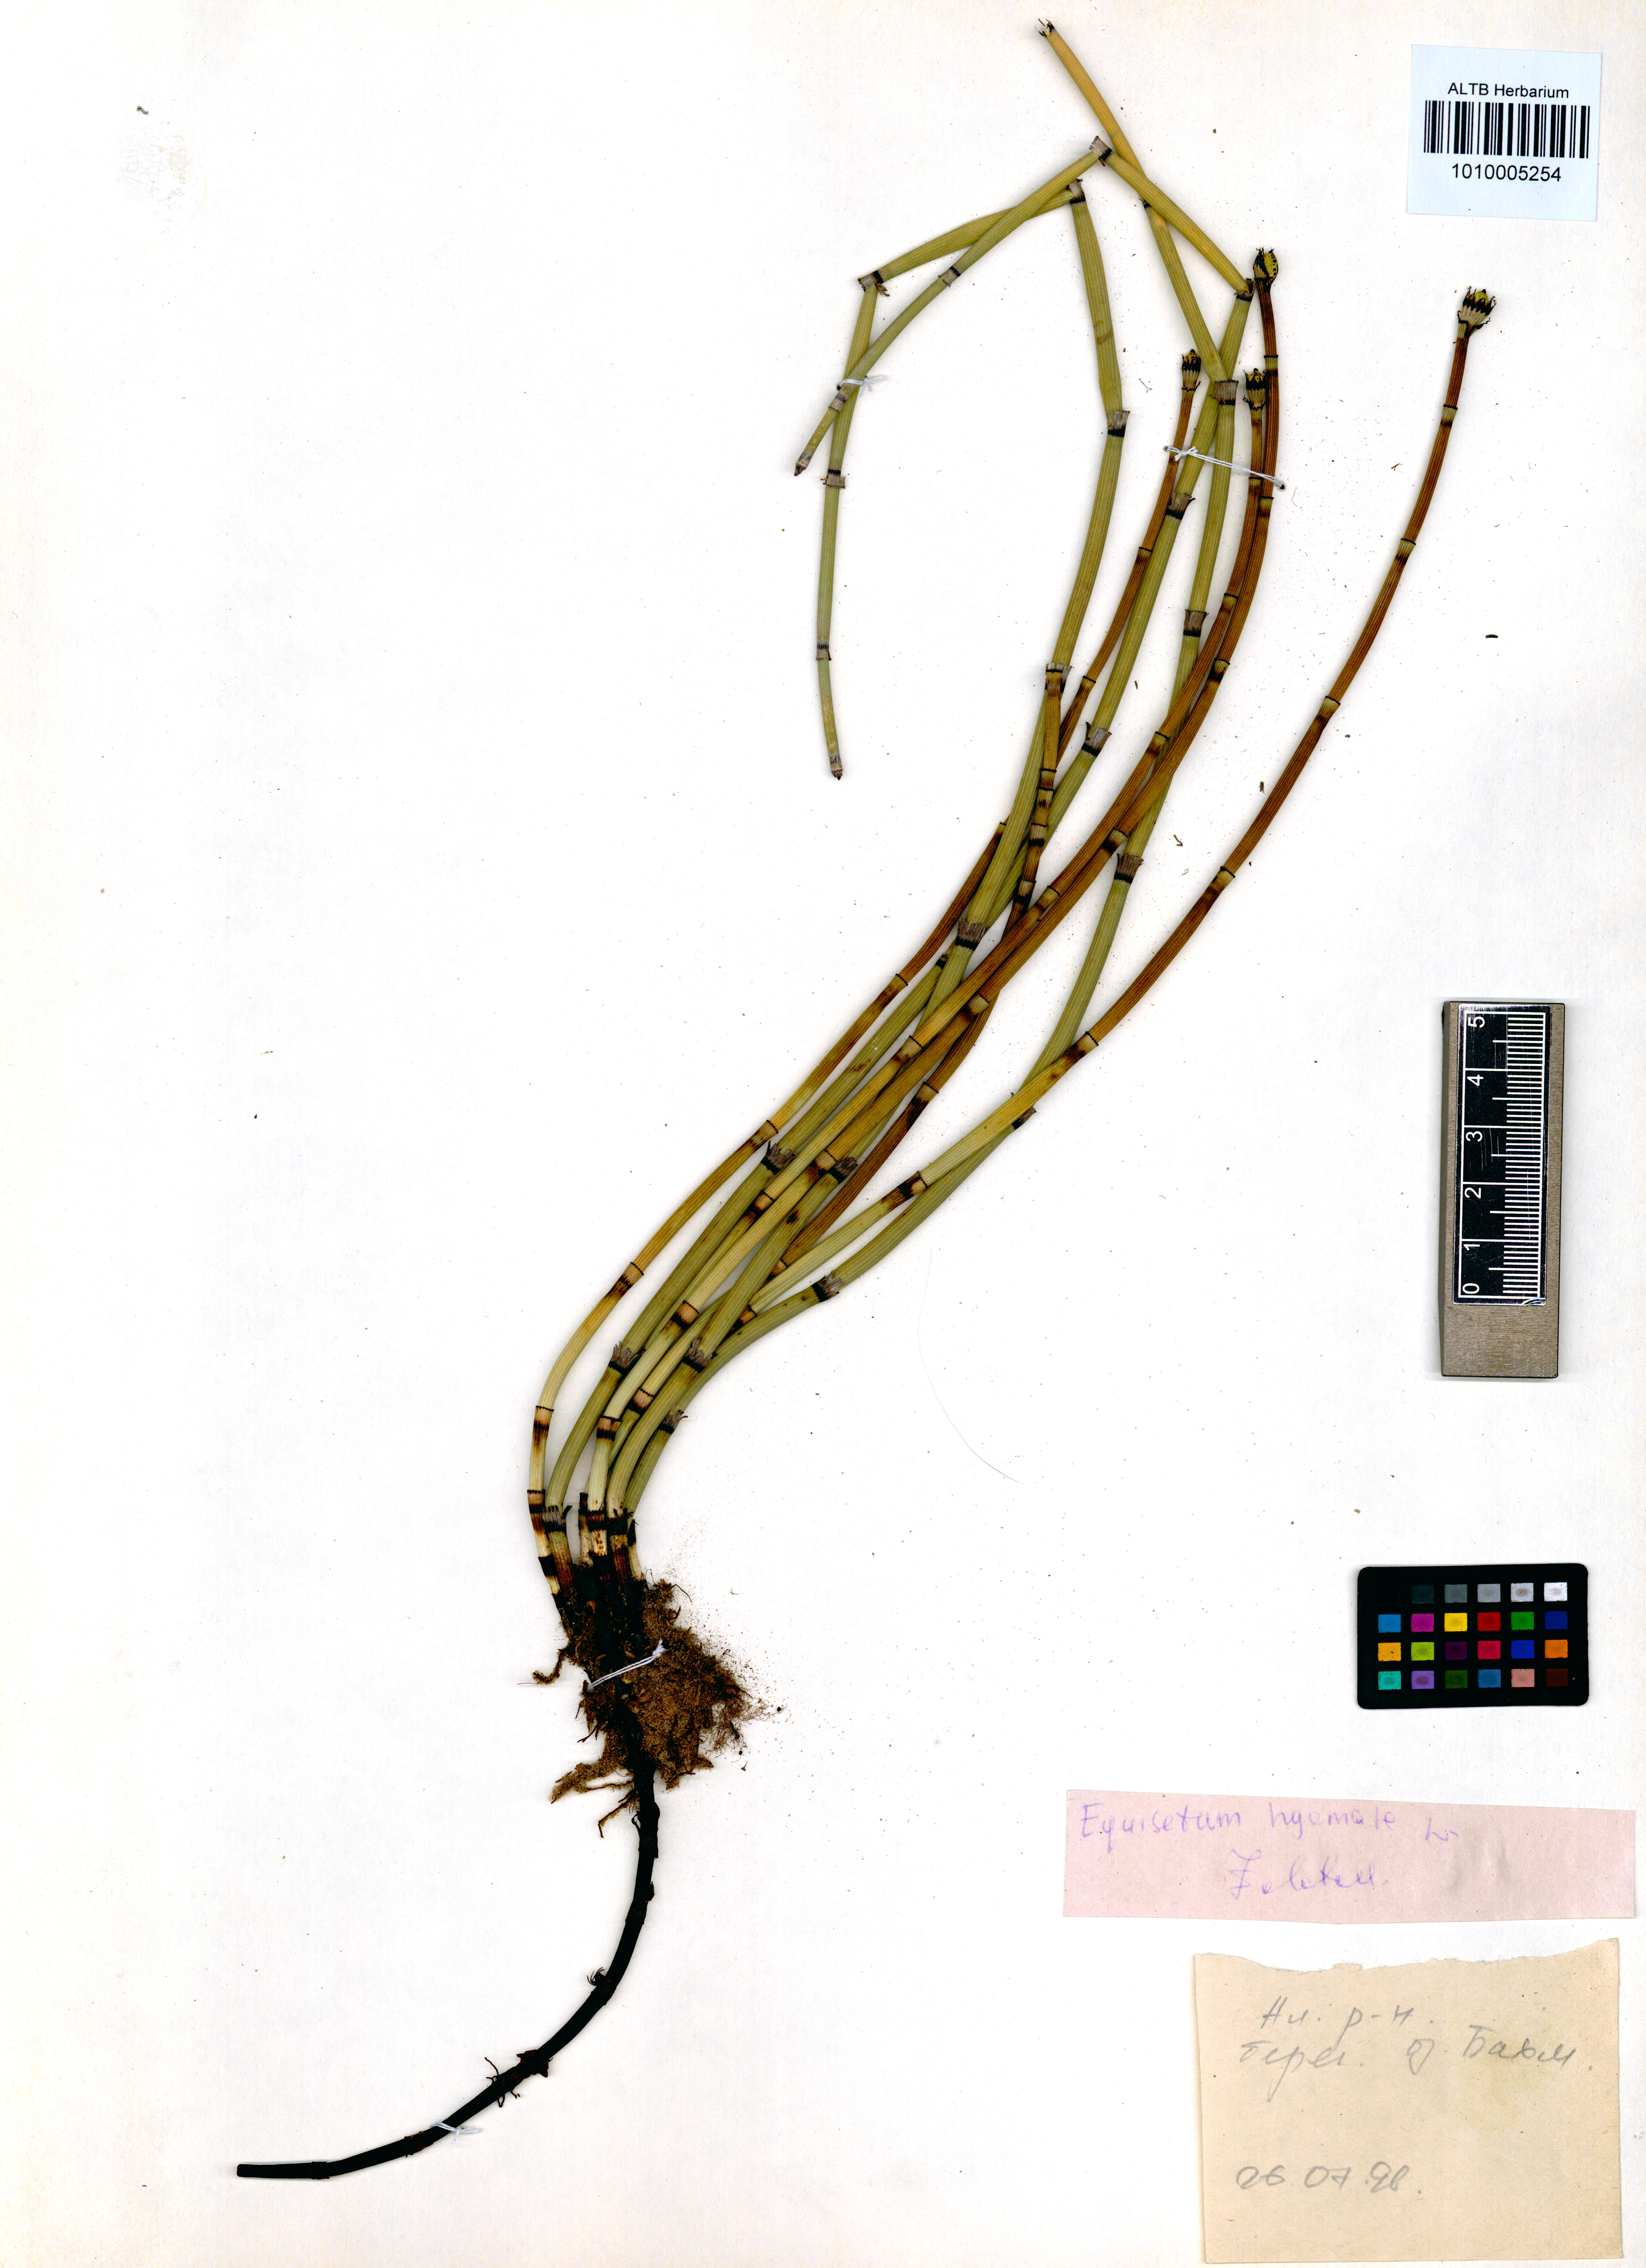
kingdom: Plantae
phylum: Tracheophyta
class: Polypodiopsida
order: Equisetales
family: Equisetaceae
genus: Equisetum
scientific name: Equisetum hyemale
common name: Rough horsetail
